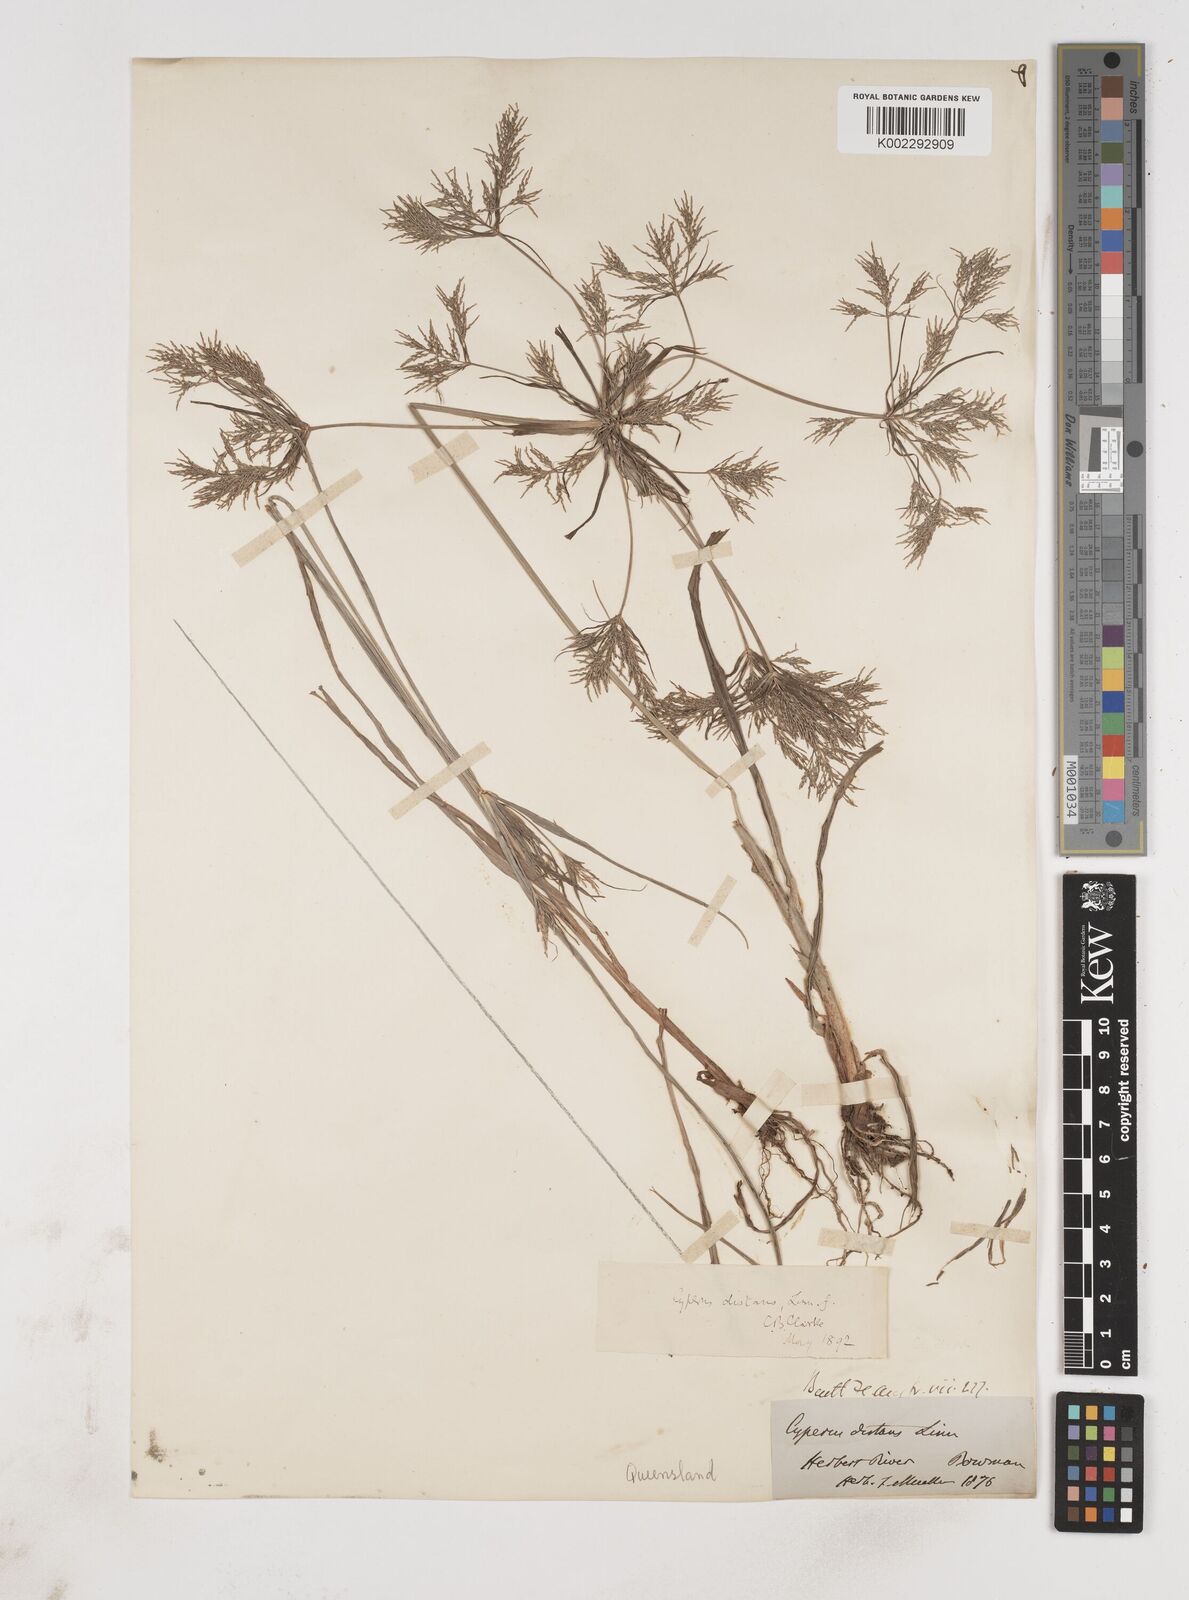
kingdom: Plantae
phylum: Tracheophyta
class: Liliopsida
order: Poales
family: Cyperaceae
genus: Cyperus
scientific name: Cyperus distans
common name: Slender cyperus
